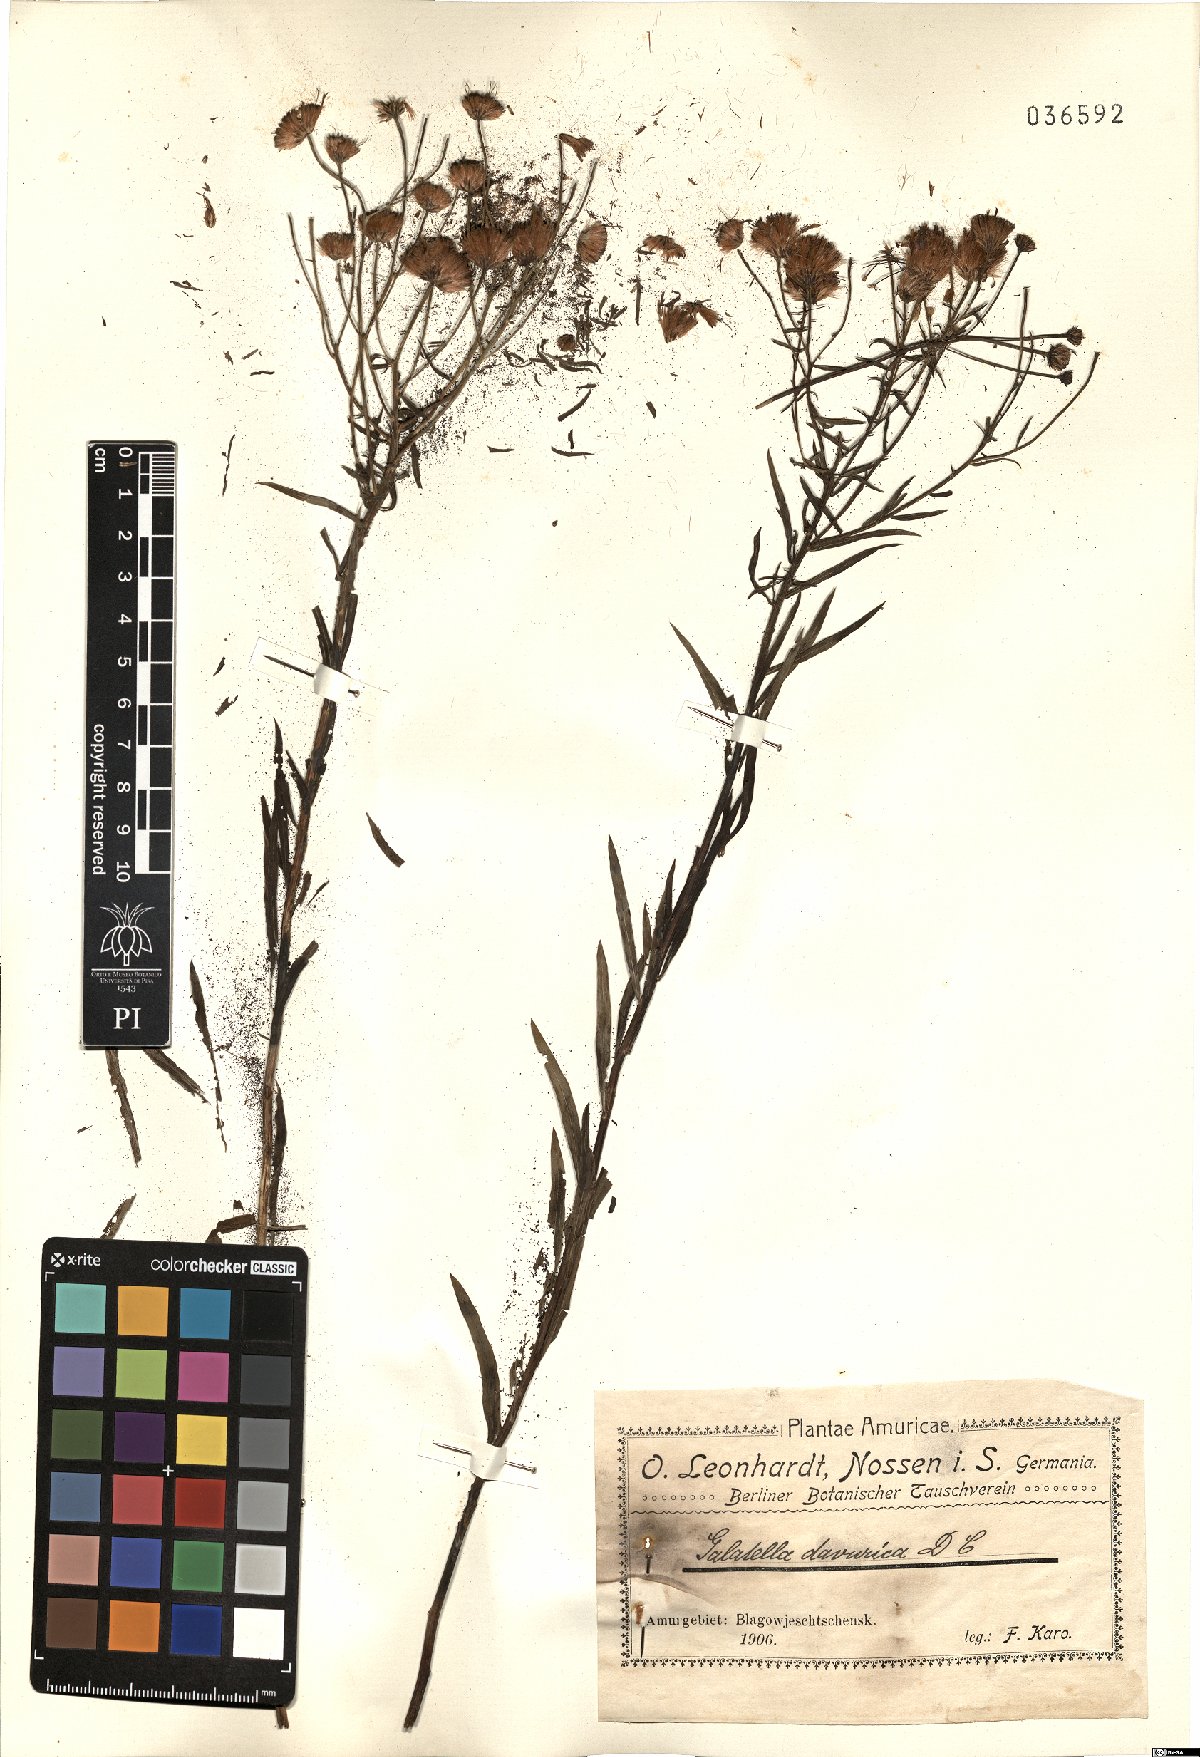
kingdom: Plantae
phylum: Tracheophyta
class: Magnoliopsida
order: Asterales
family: Asteraceae
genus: Galatella
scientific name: Galatella dahurica
